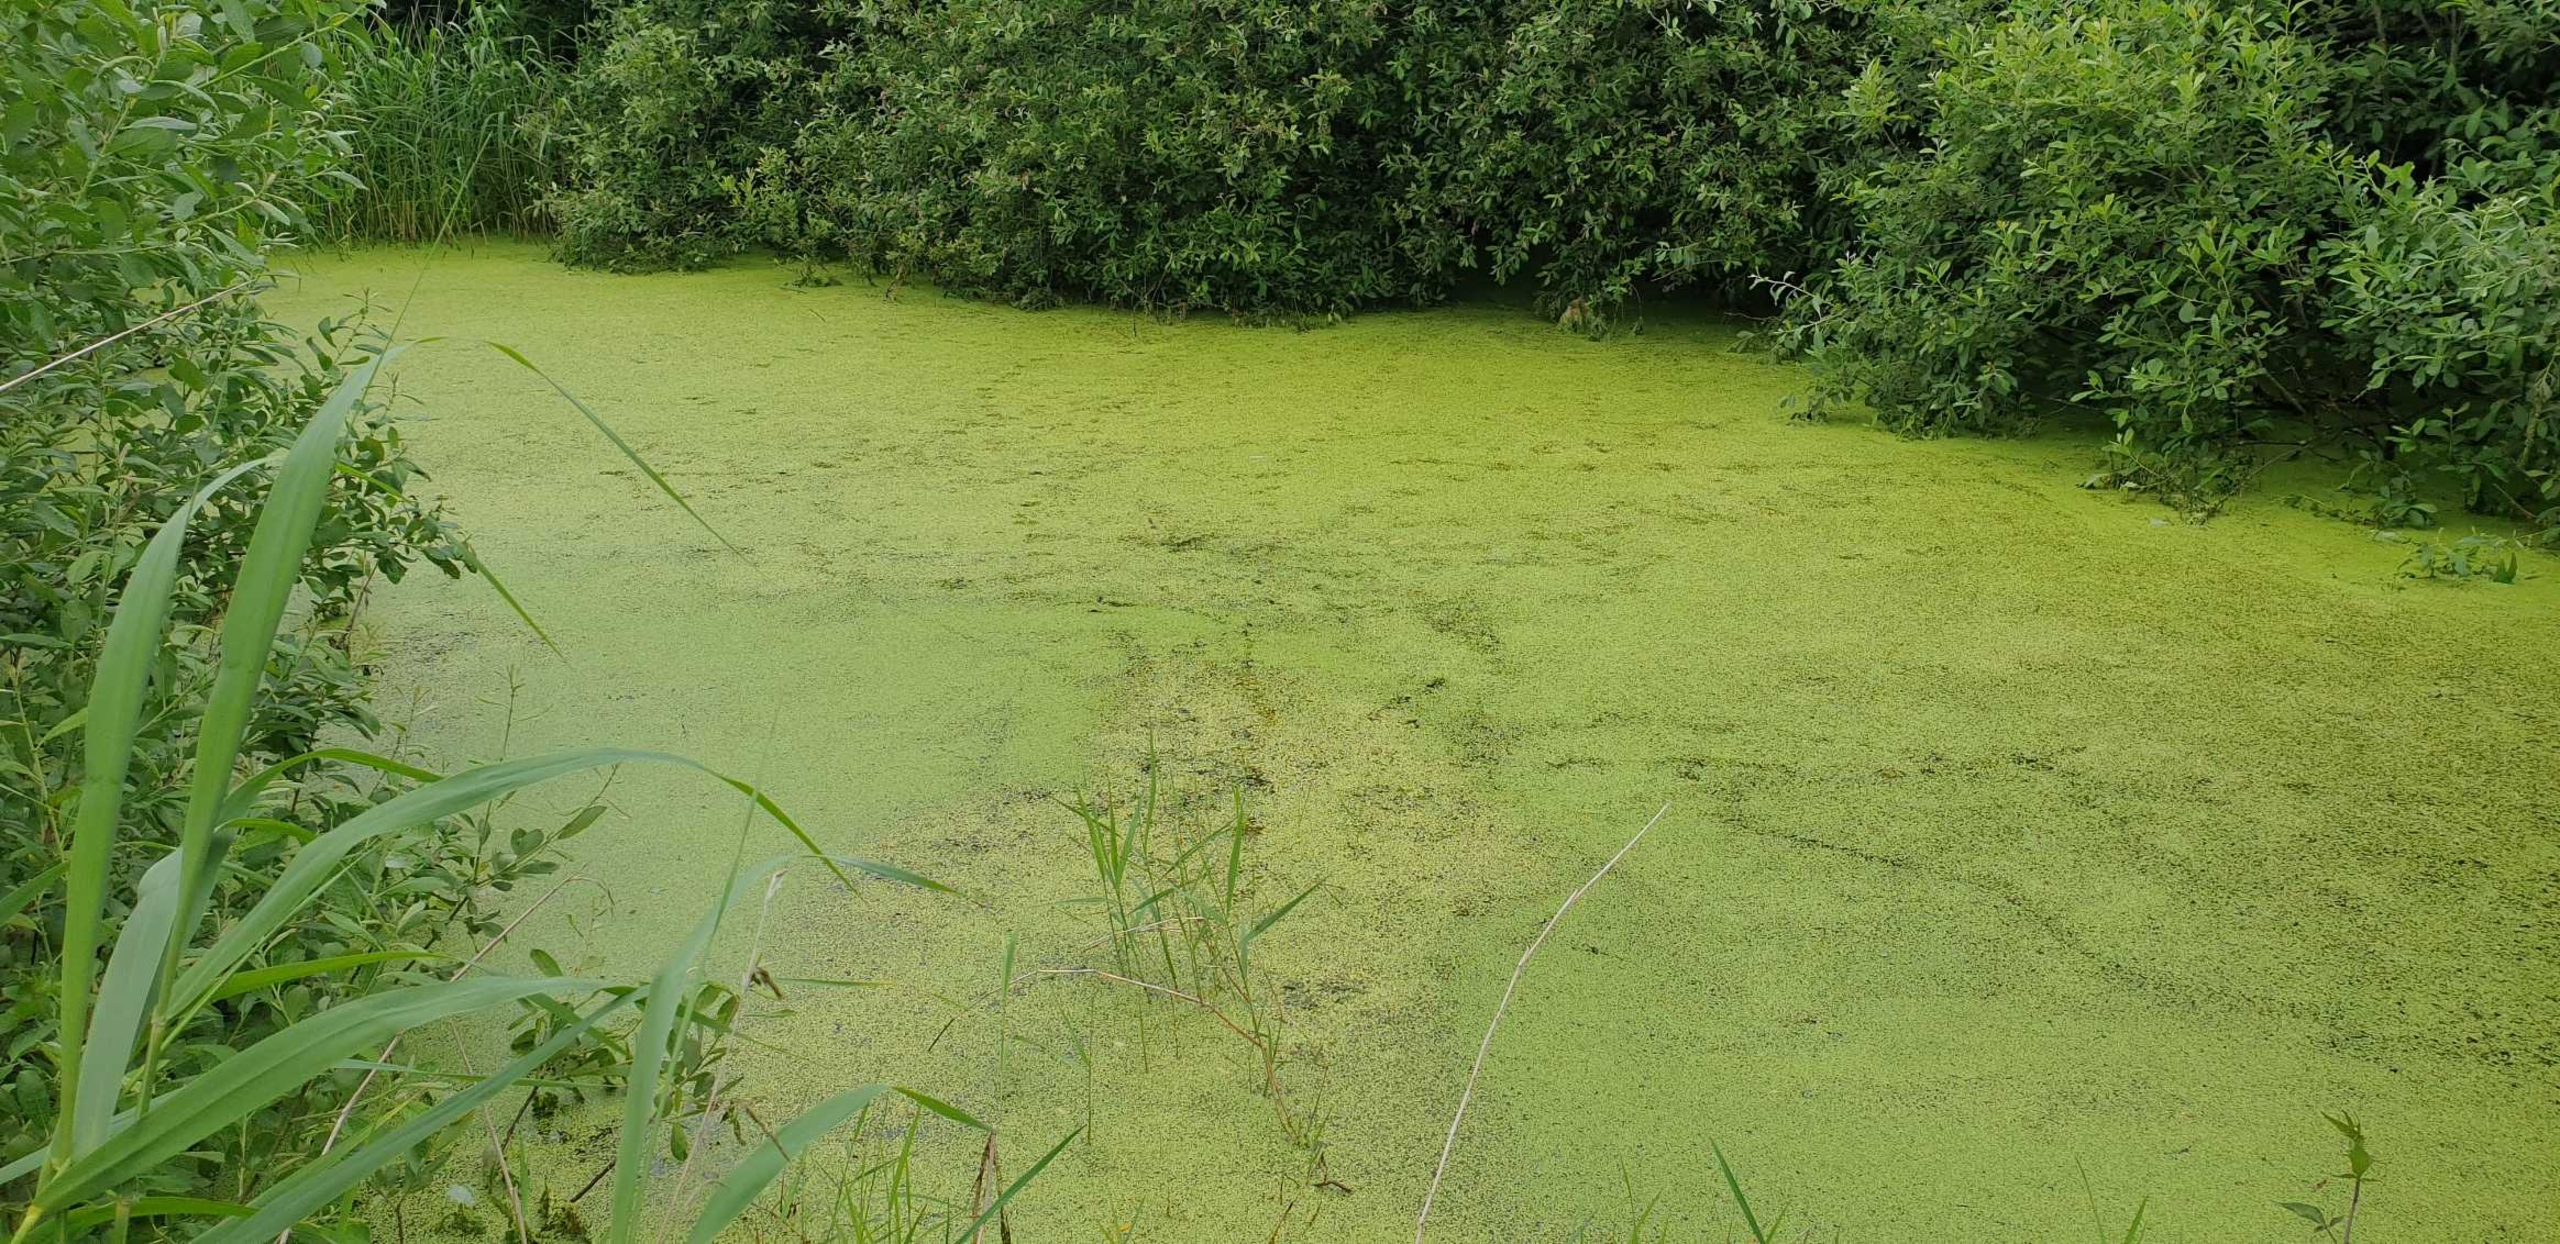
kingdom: Plantae
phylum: Tracheophyta
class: Liliopsida
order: Alismatales
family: Araceae
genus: Lemna
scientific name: Lemna minor
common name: Liden andemad
